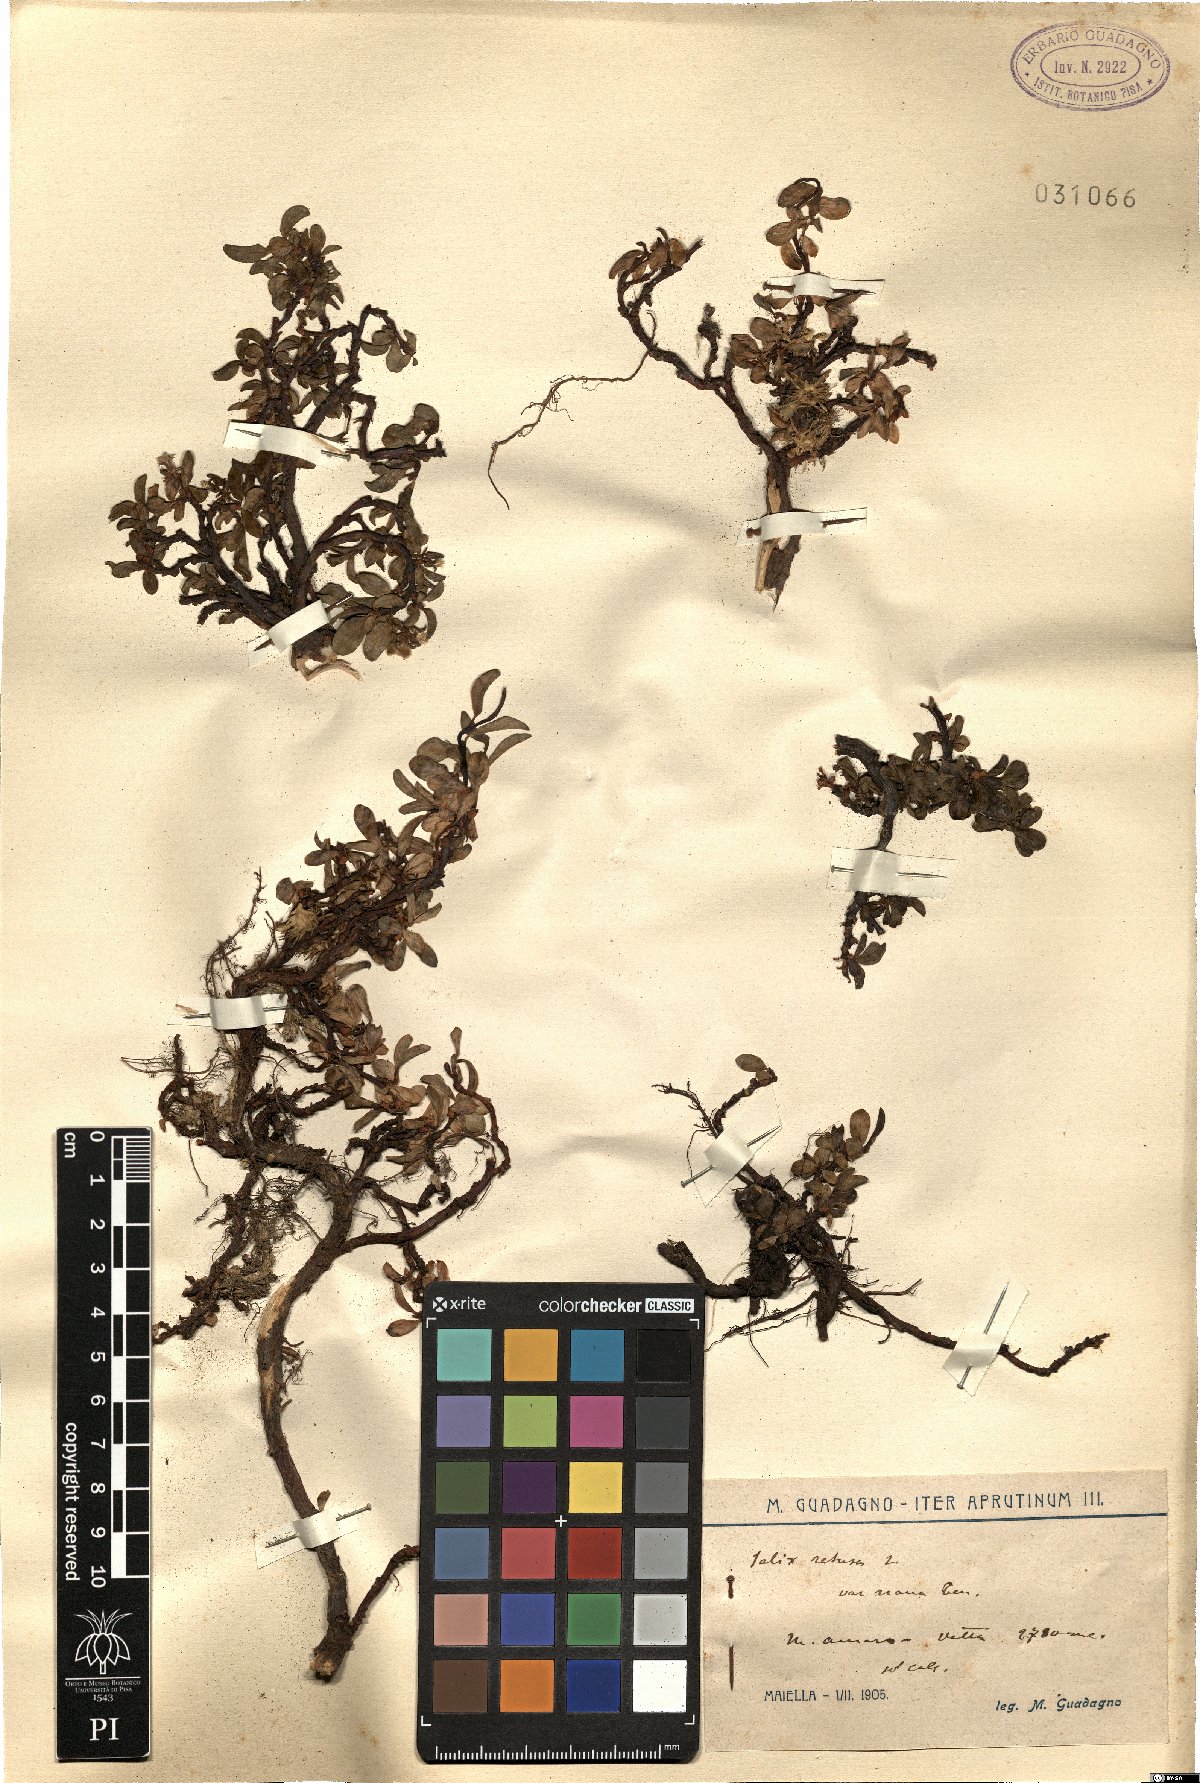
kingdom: Plantae
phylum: Tracheophyta
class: Magnoliopsida
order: Malpighiales
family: Salicaceae
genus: Salix
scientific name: Salix retusa
